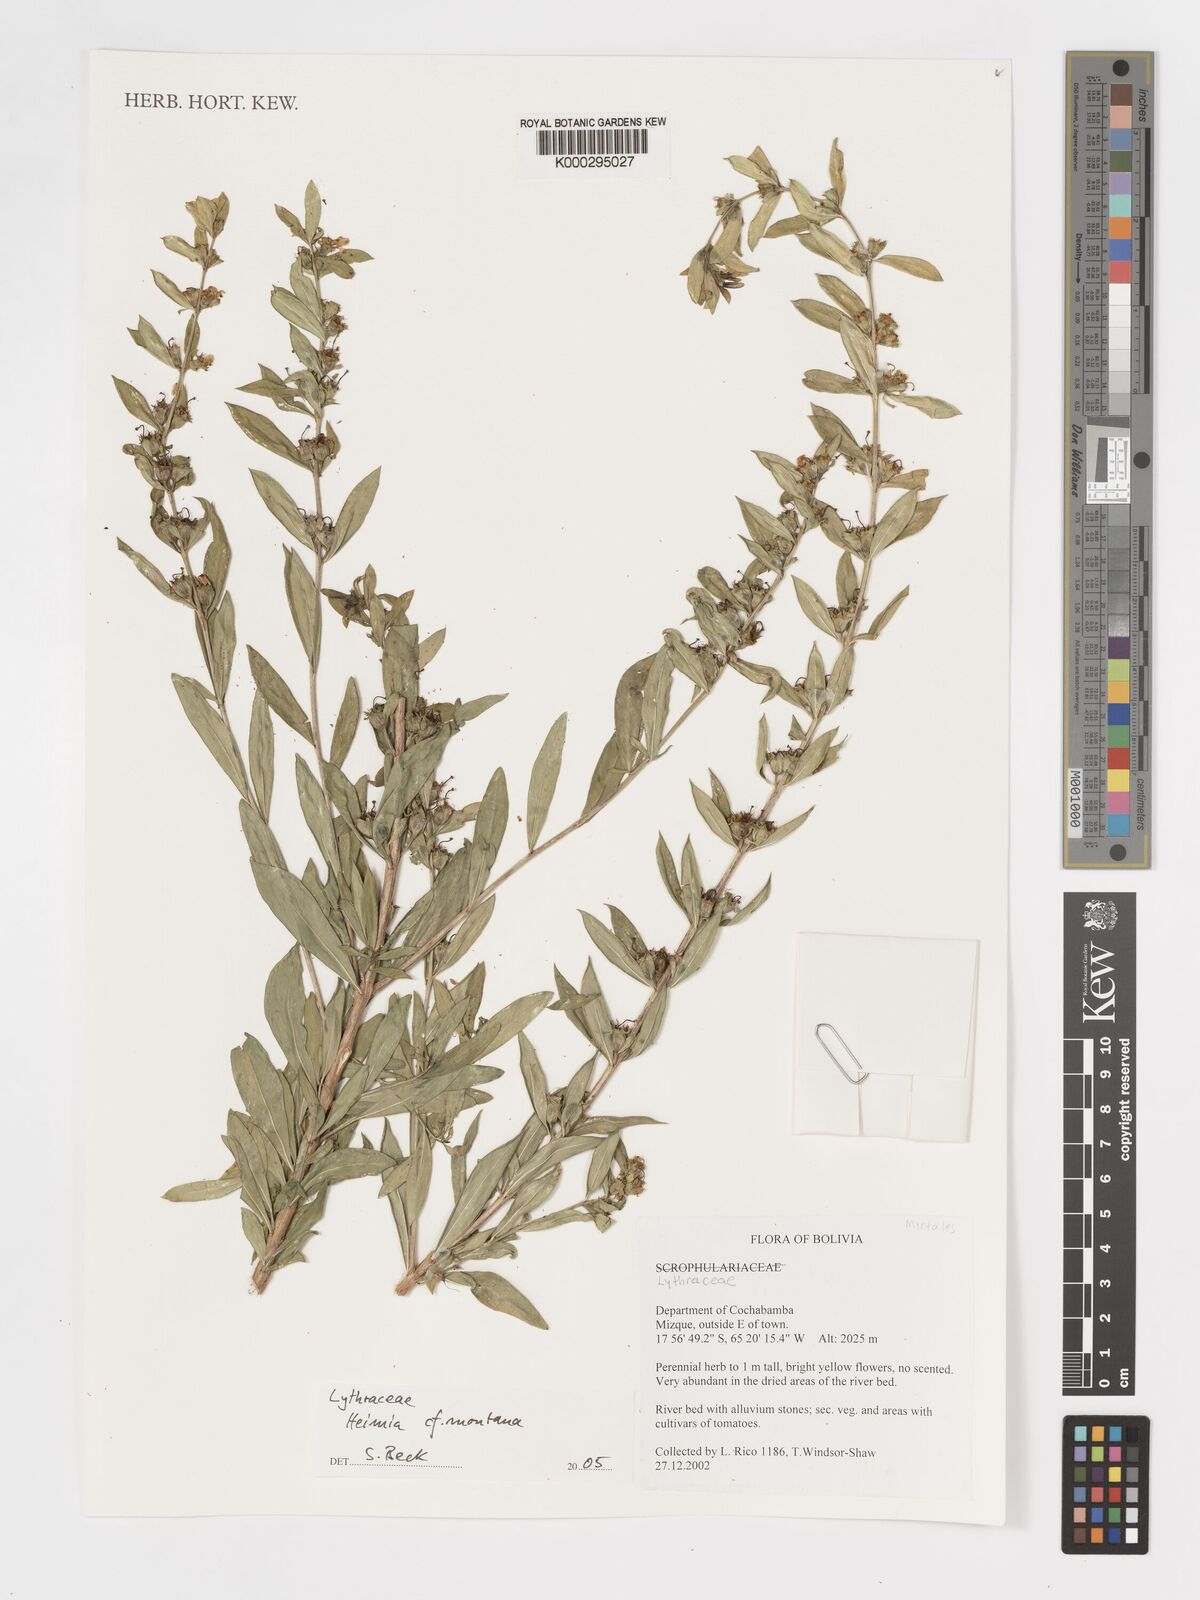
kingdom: Plantae
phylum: Tracheophyta
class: Magnoliopsida
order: Myrtales
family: Lythraceae
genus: Heimia
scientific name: Heimia montana
